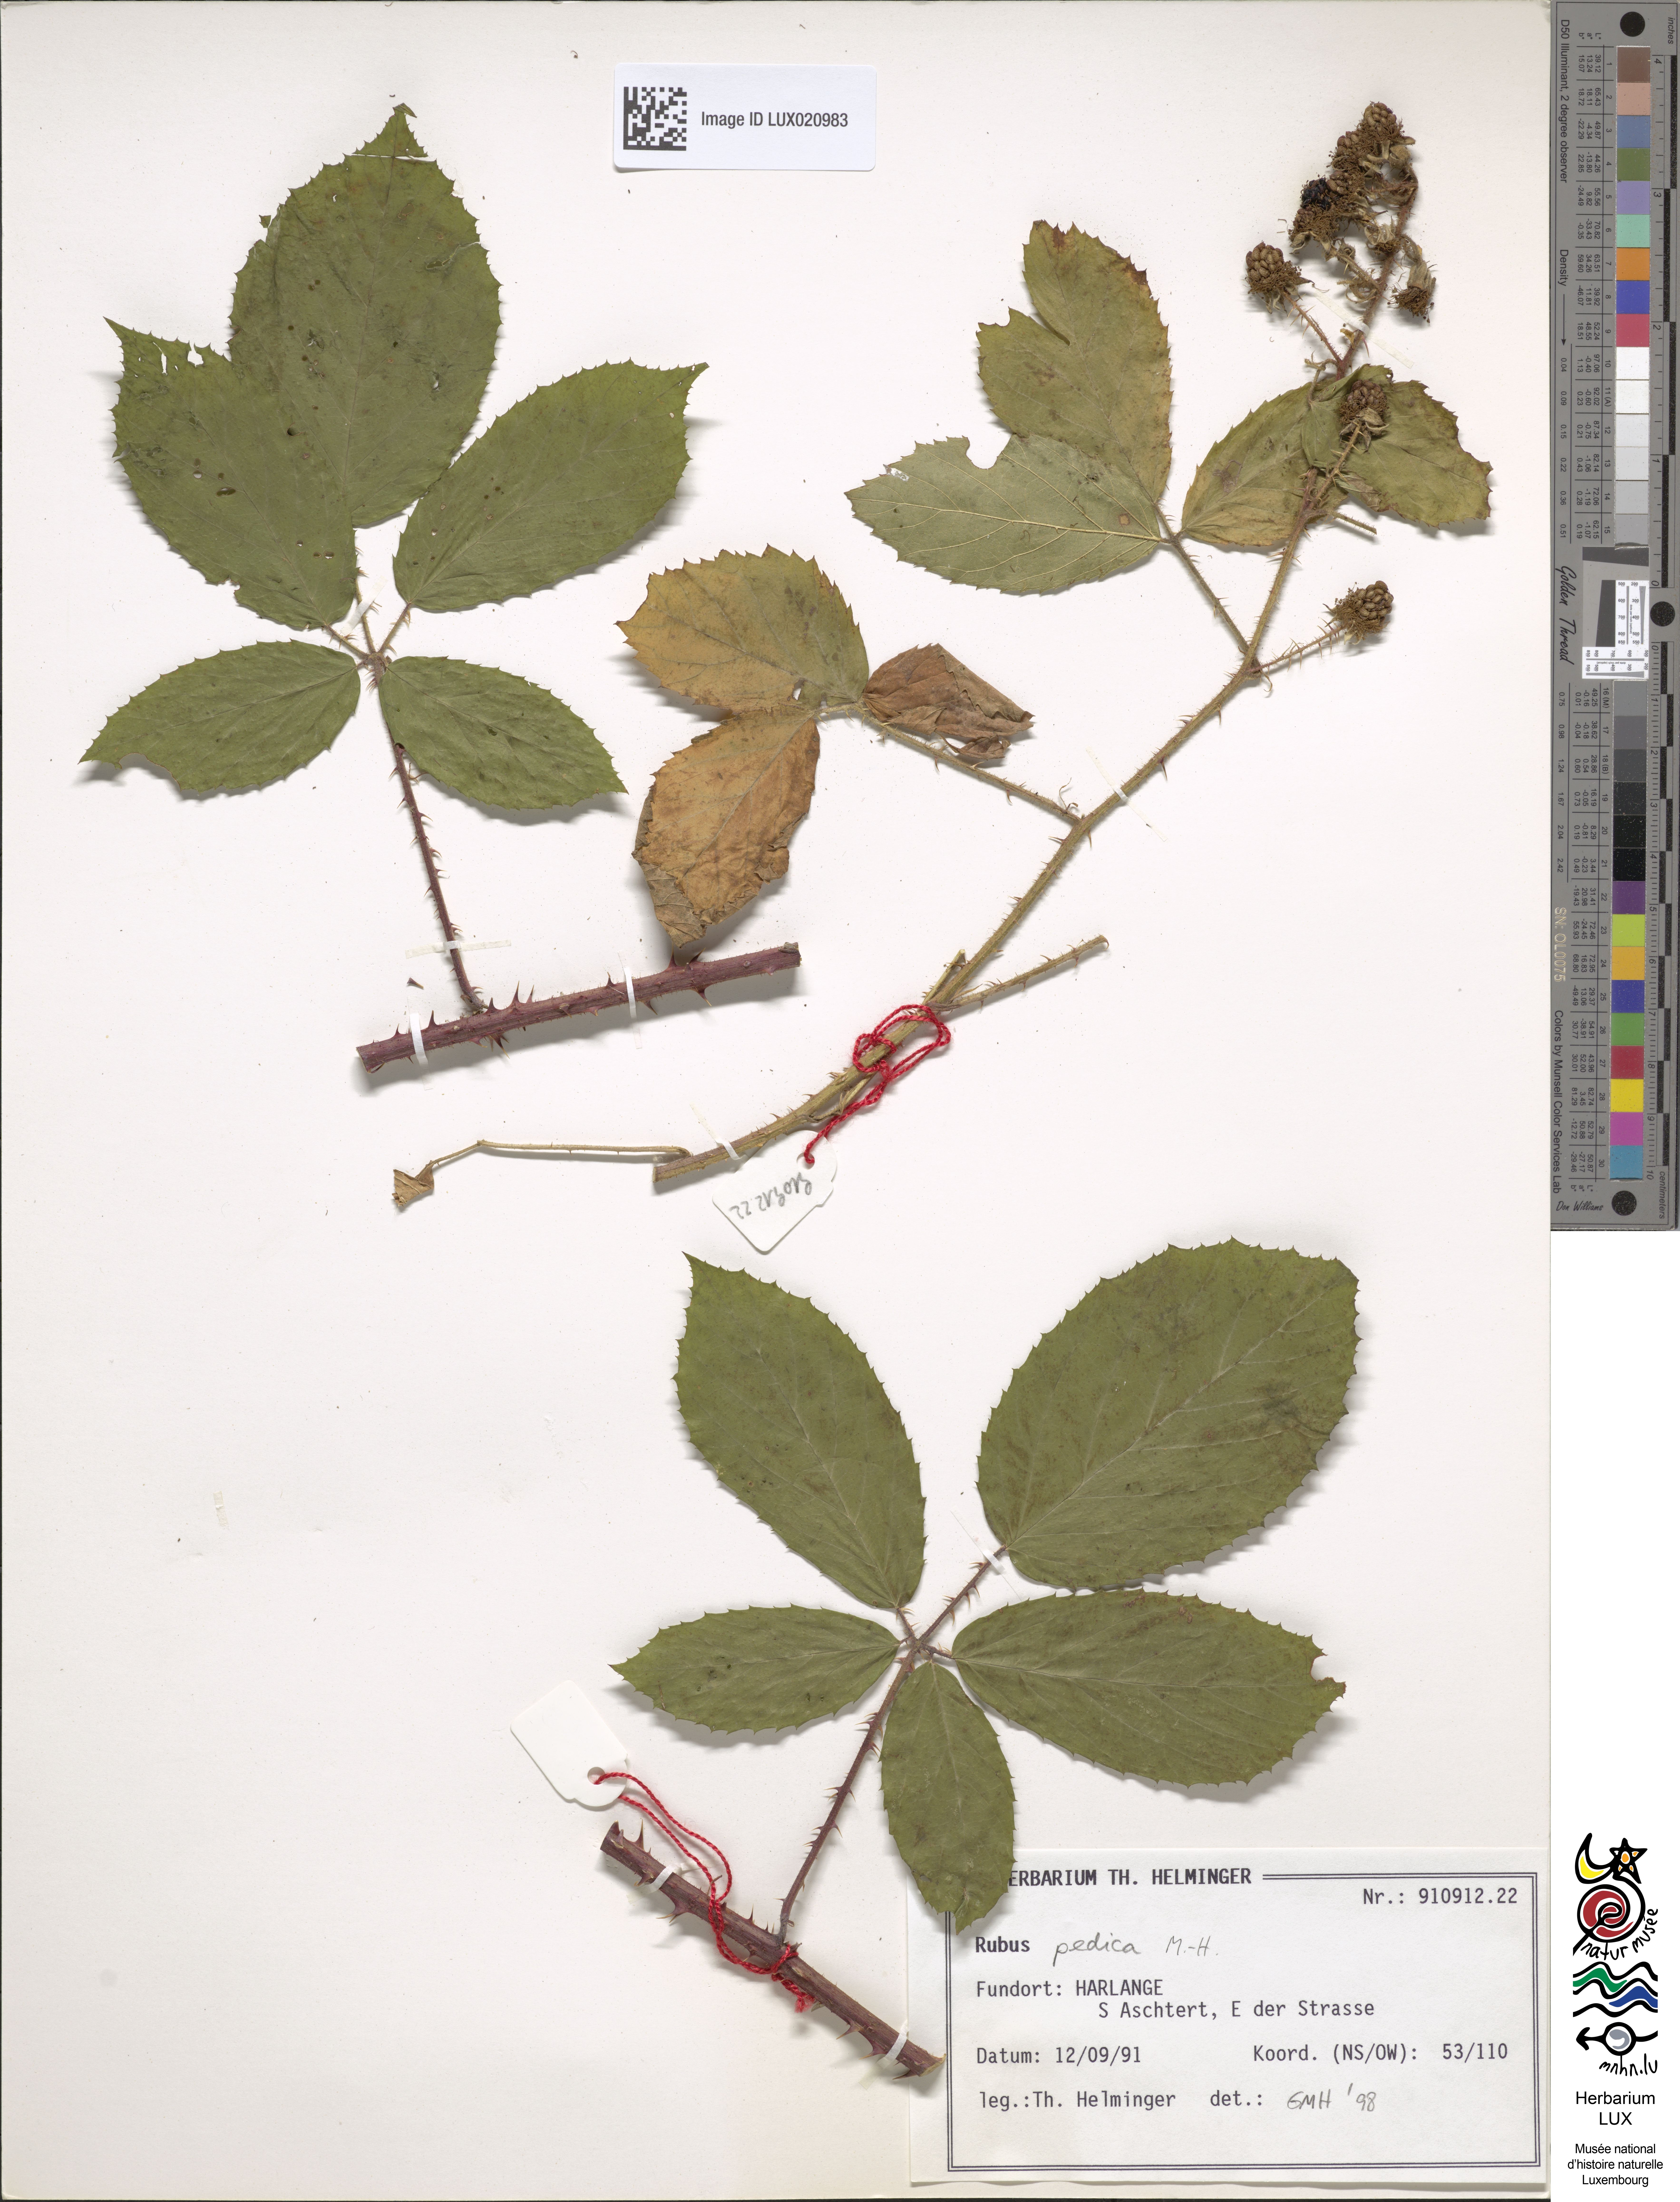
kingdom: Plantae
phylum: Tracheophyta
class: Magnoliopsida
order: Rosales
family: Rosaceae
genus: Rubus
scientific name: Rubus pedica
